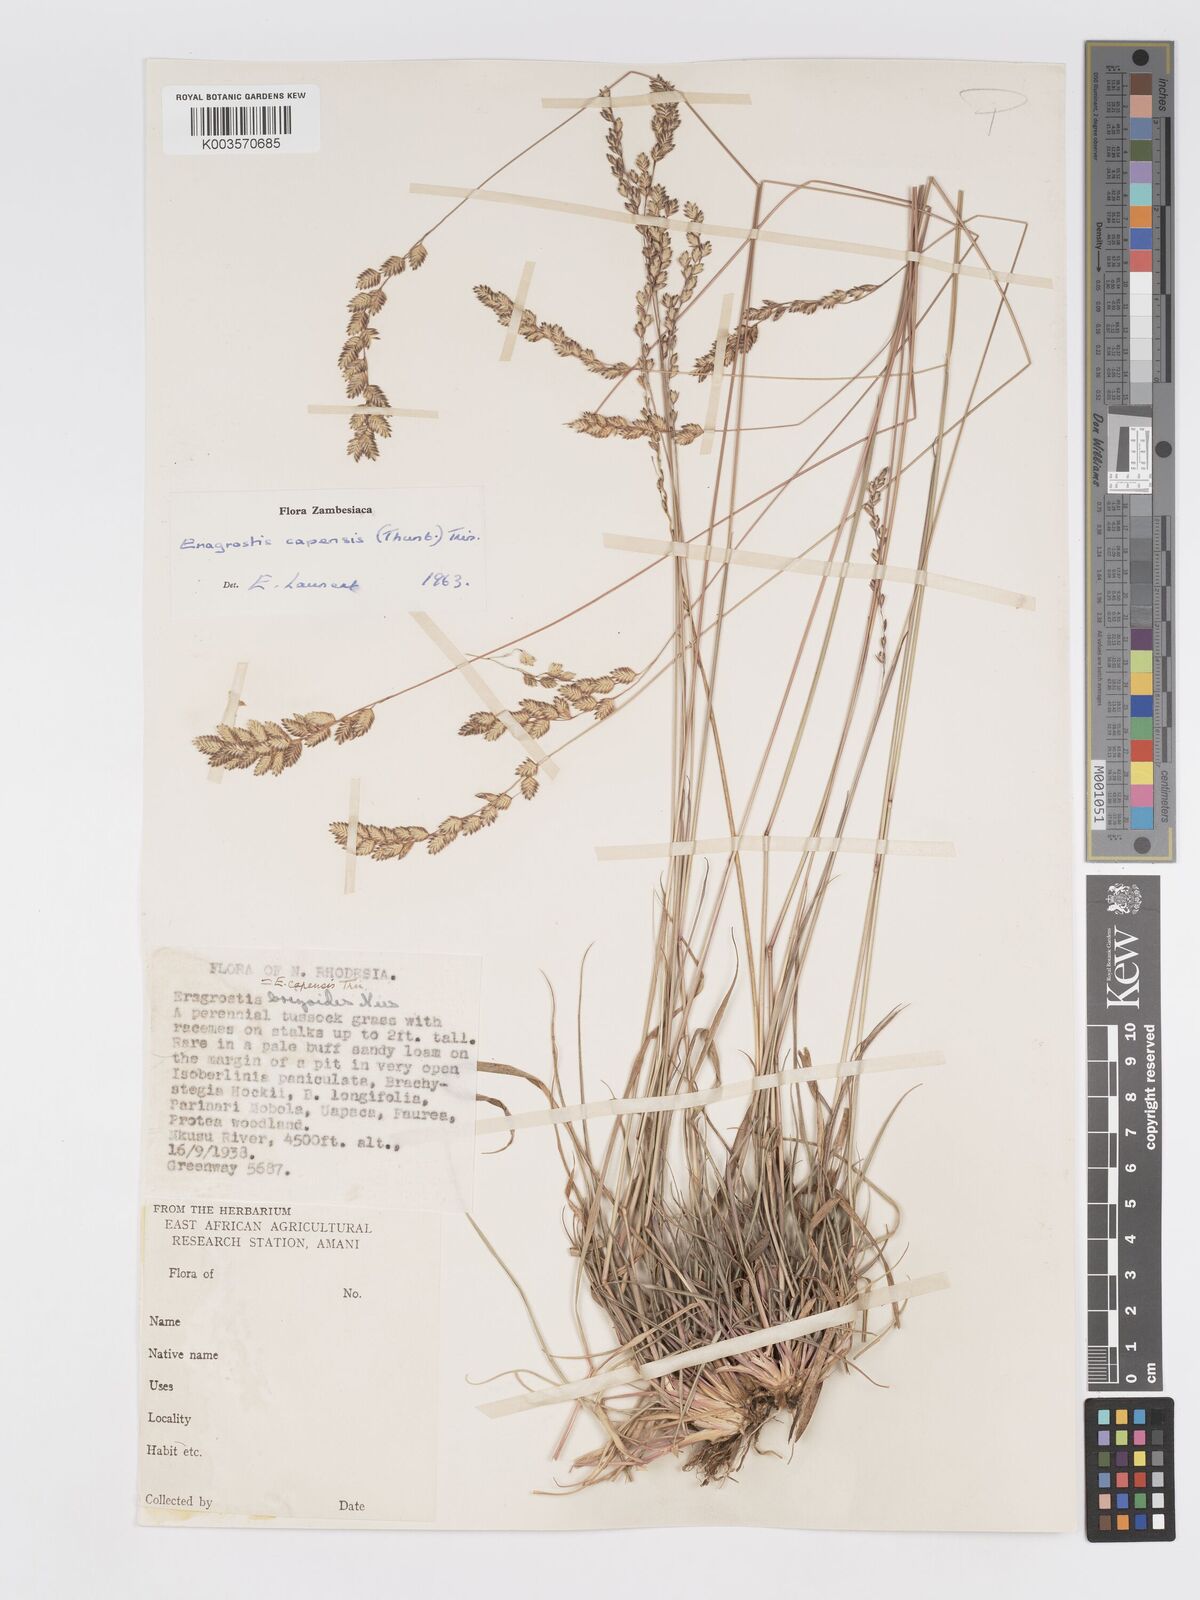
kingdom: Plantae
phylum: Tracheophyta
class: Liliopsida
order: Poales
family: Poaceae
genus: Eragrostis
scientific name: Eragrostis capensis
